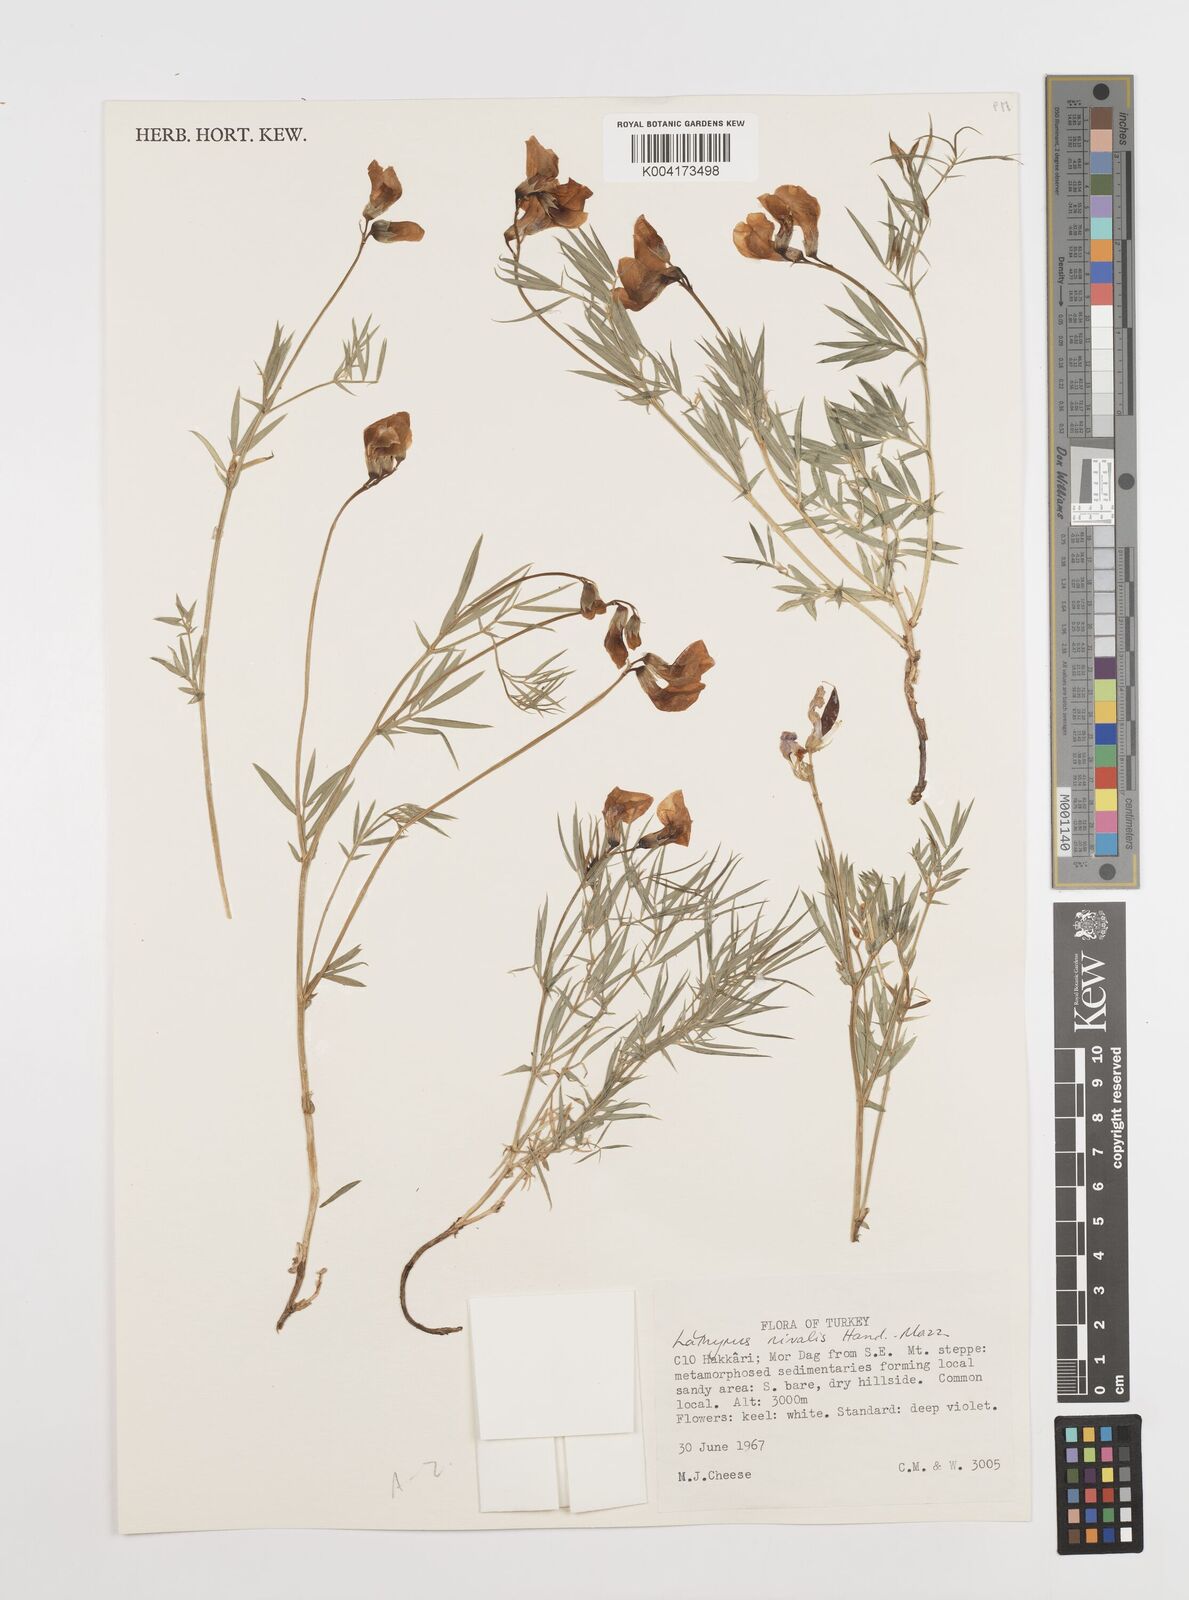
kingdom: Plantae
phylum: Tracheophyta
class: Magnoliopsida
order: Fabales
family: Fabaceae
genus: Lathyrus
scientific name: Lathyrus nivalis
